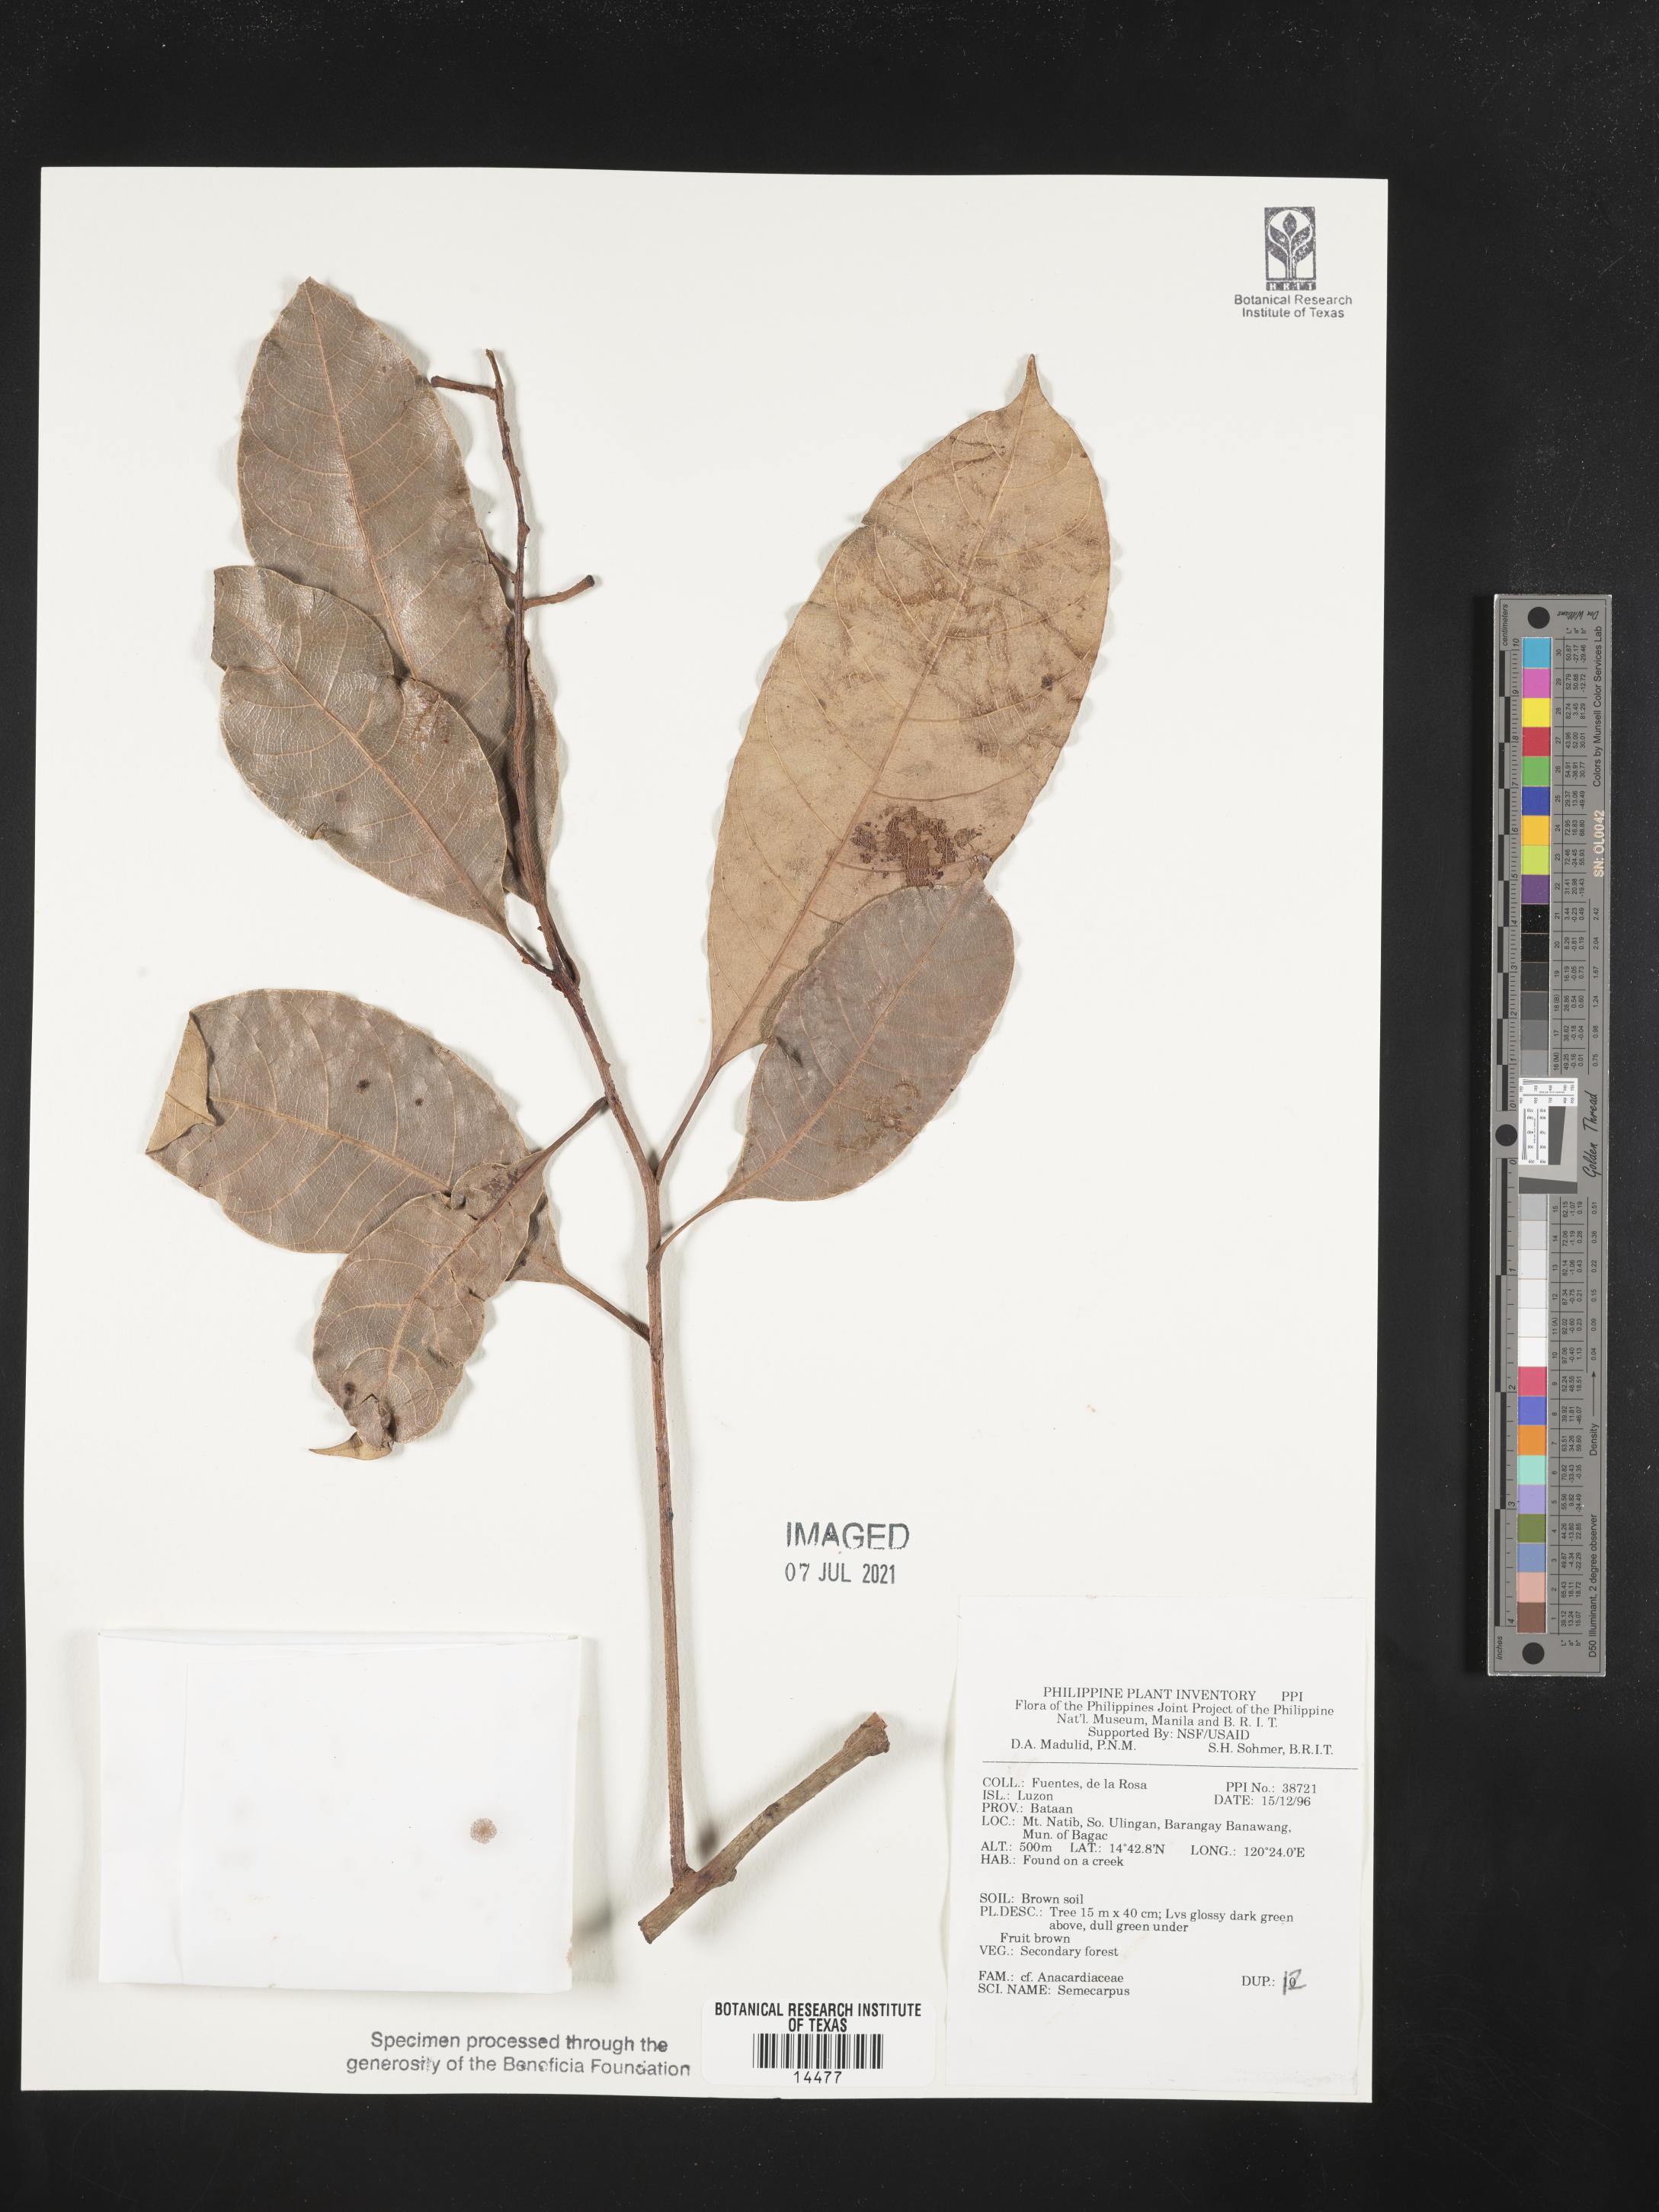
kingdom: Plantae
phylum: Tracheophyta
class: Magnoliopsida
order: Sapindales
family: Anacardiaceae
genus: Semecarpus
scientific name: Semecarpus
